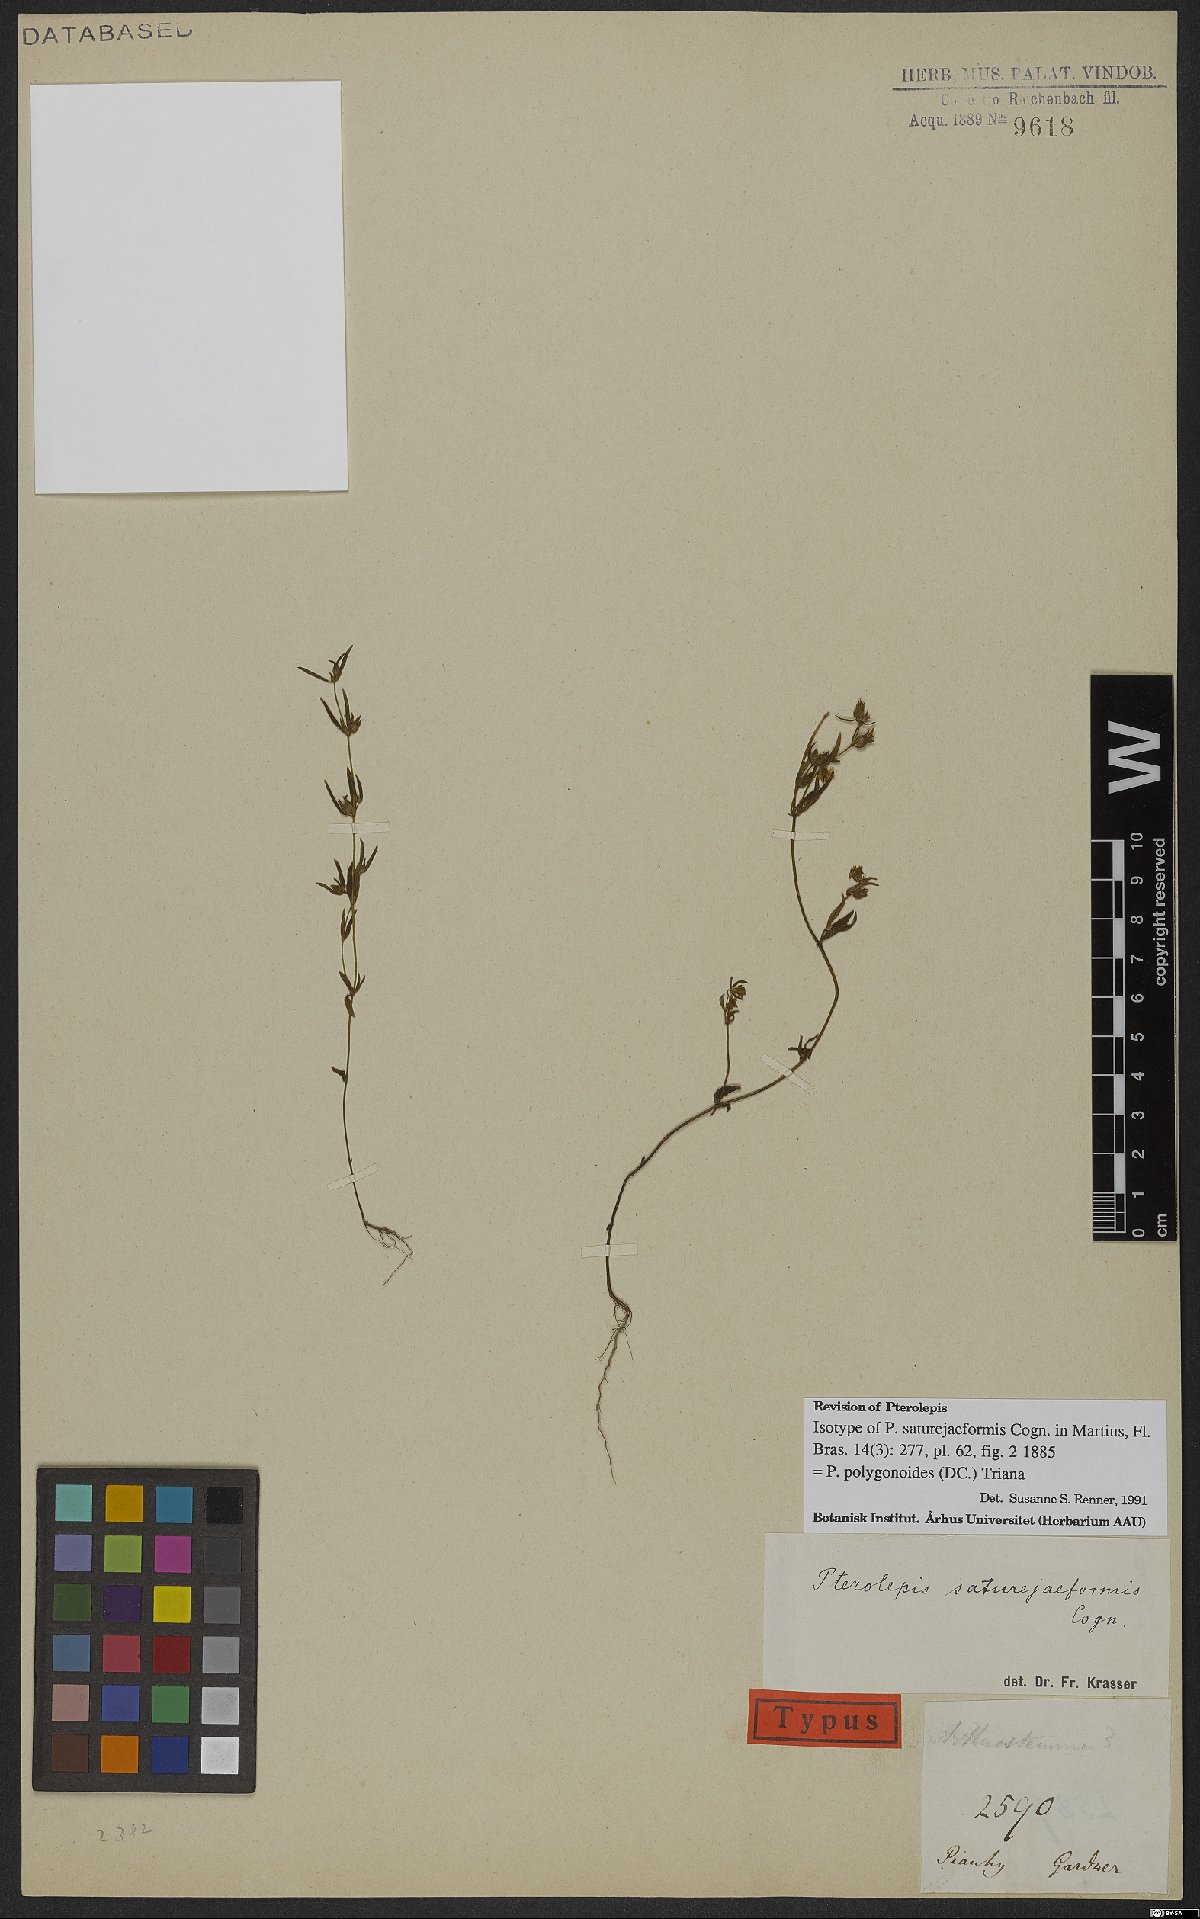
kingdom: Plantae
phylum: Tracheophyta
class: Magnoliopsida
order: Myrtales
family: Melastomataceae
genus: Pterolepis
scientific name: Pterolepis polygonoides
